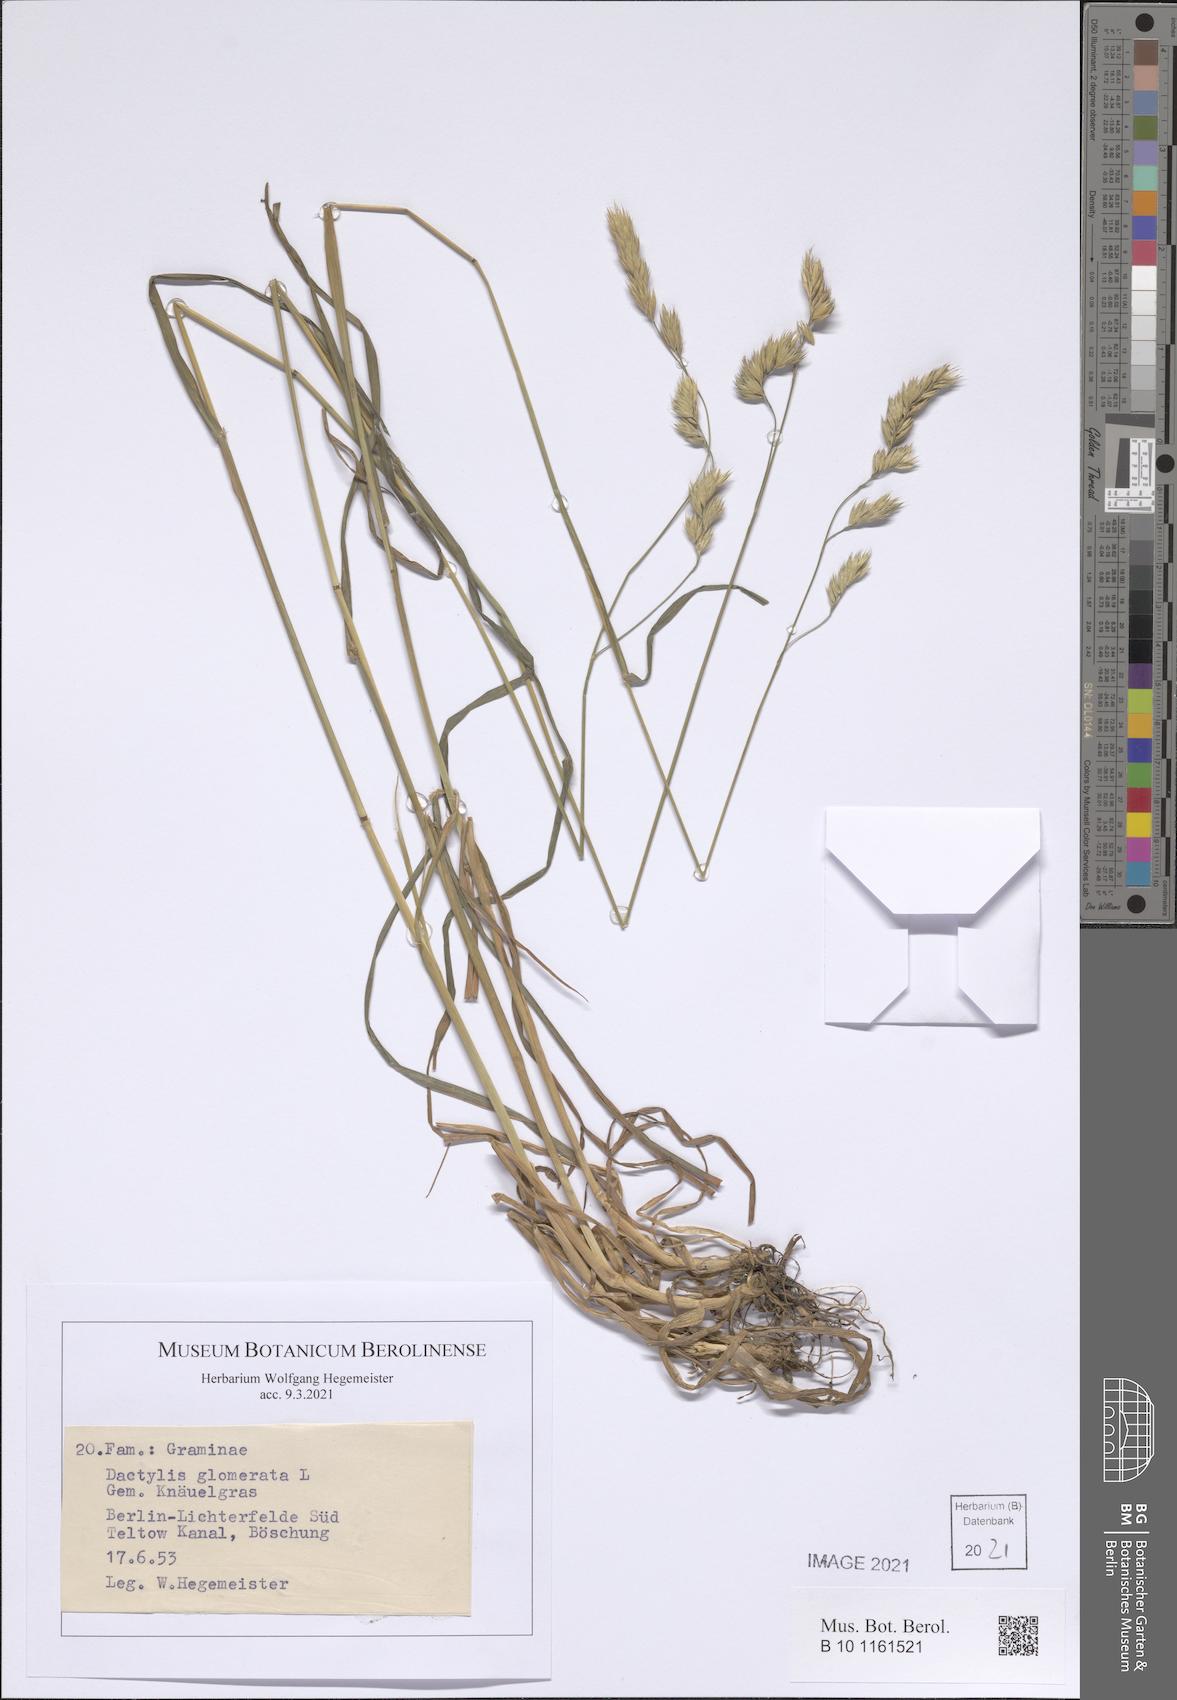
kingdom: Plantae
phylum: Tracheophyta
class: Liliopsida
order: Poales
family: Poaceae
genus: Dactylis
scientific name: Dactylis glomerata
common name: Orchardgrass
